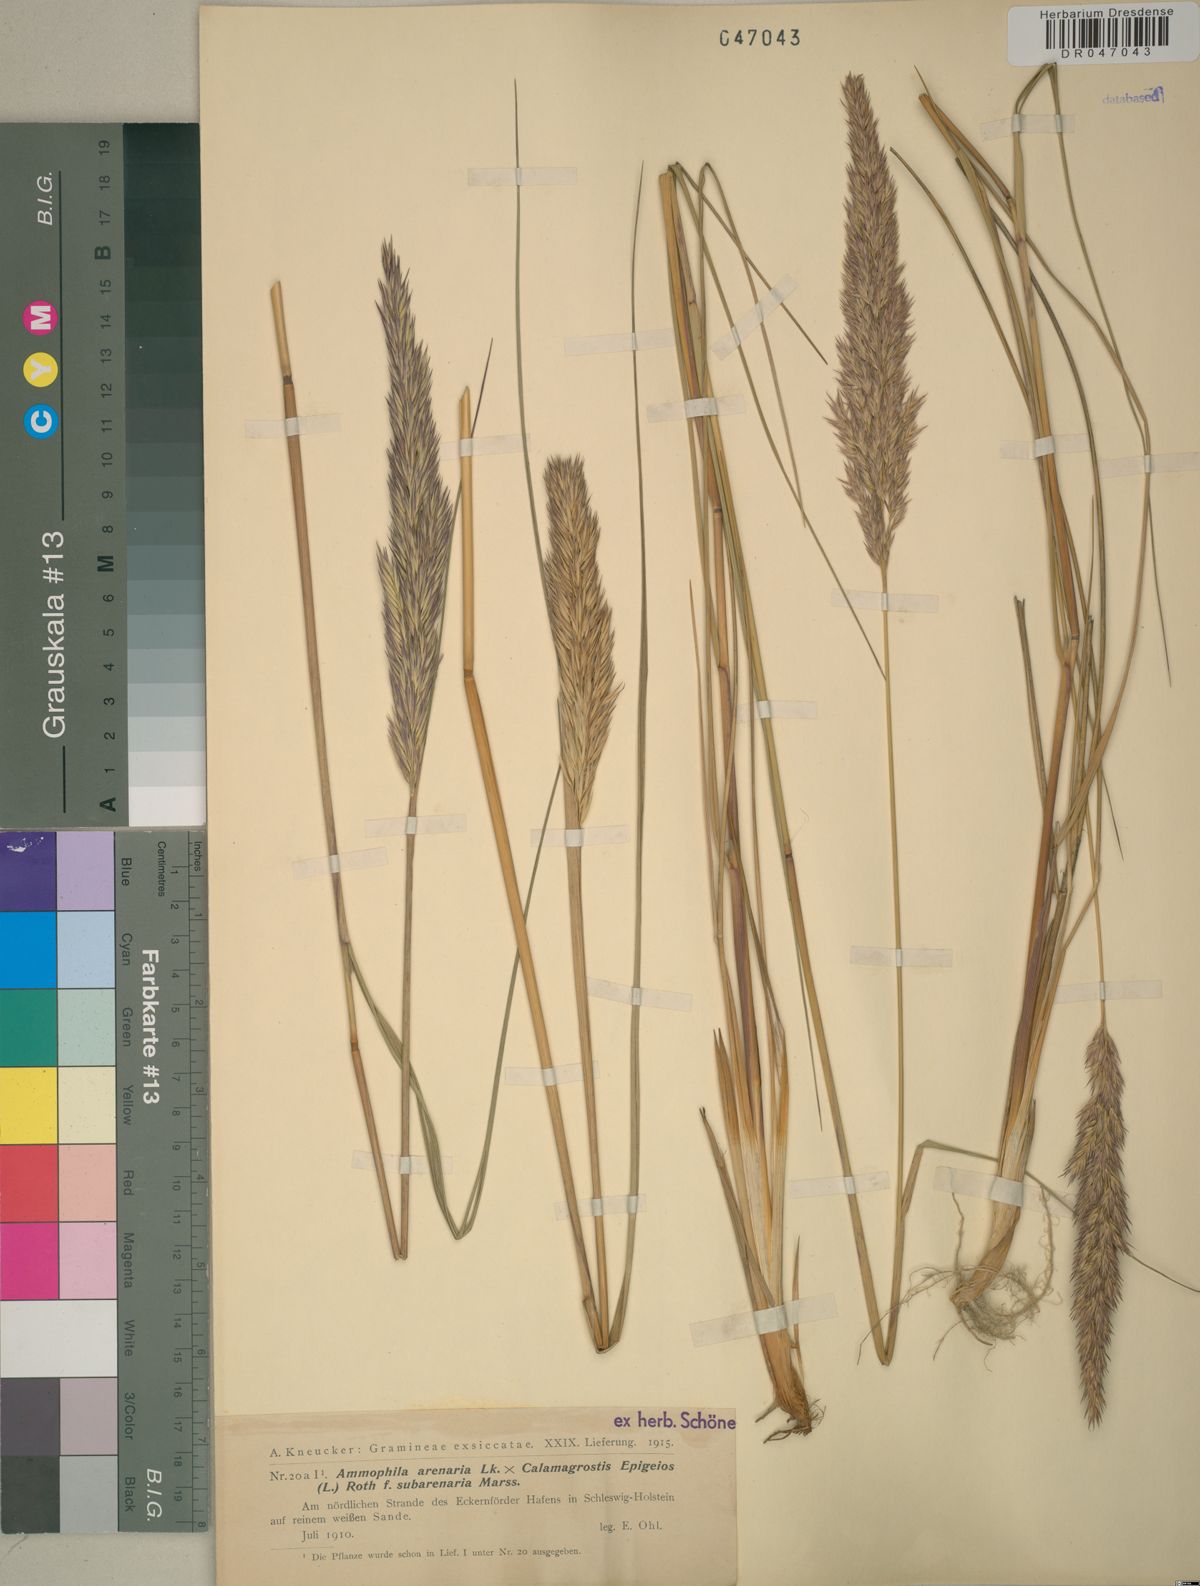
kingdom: Plantae
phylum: Tracheophyta
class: Liliopsida
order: Poales
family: Poaceae
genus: Calamagrostis
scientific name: Calamagrostis arenaria
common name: European beachgrass
